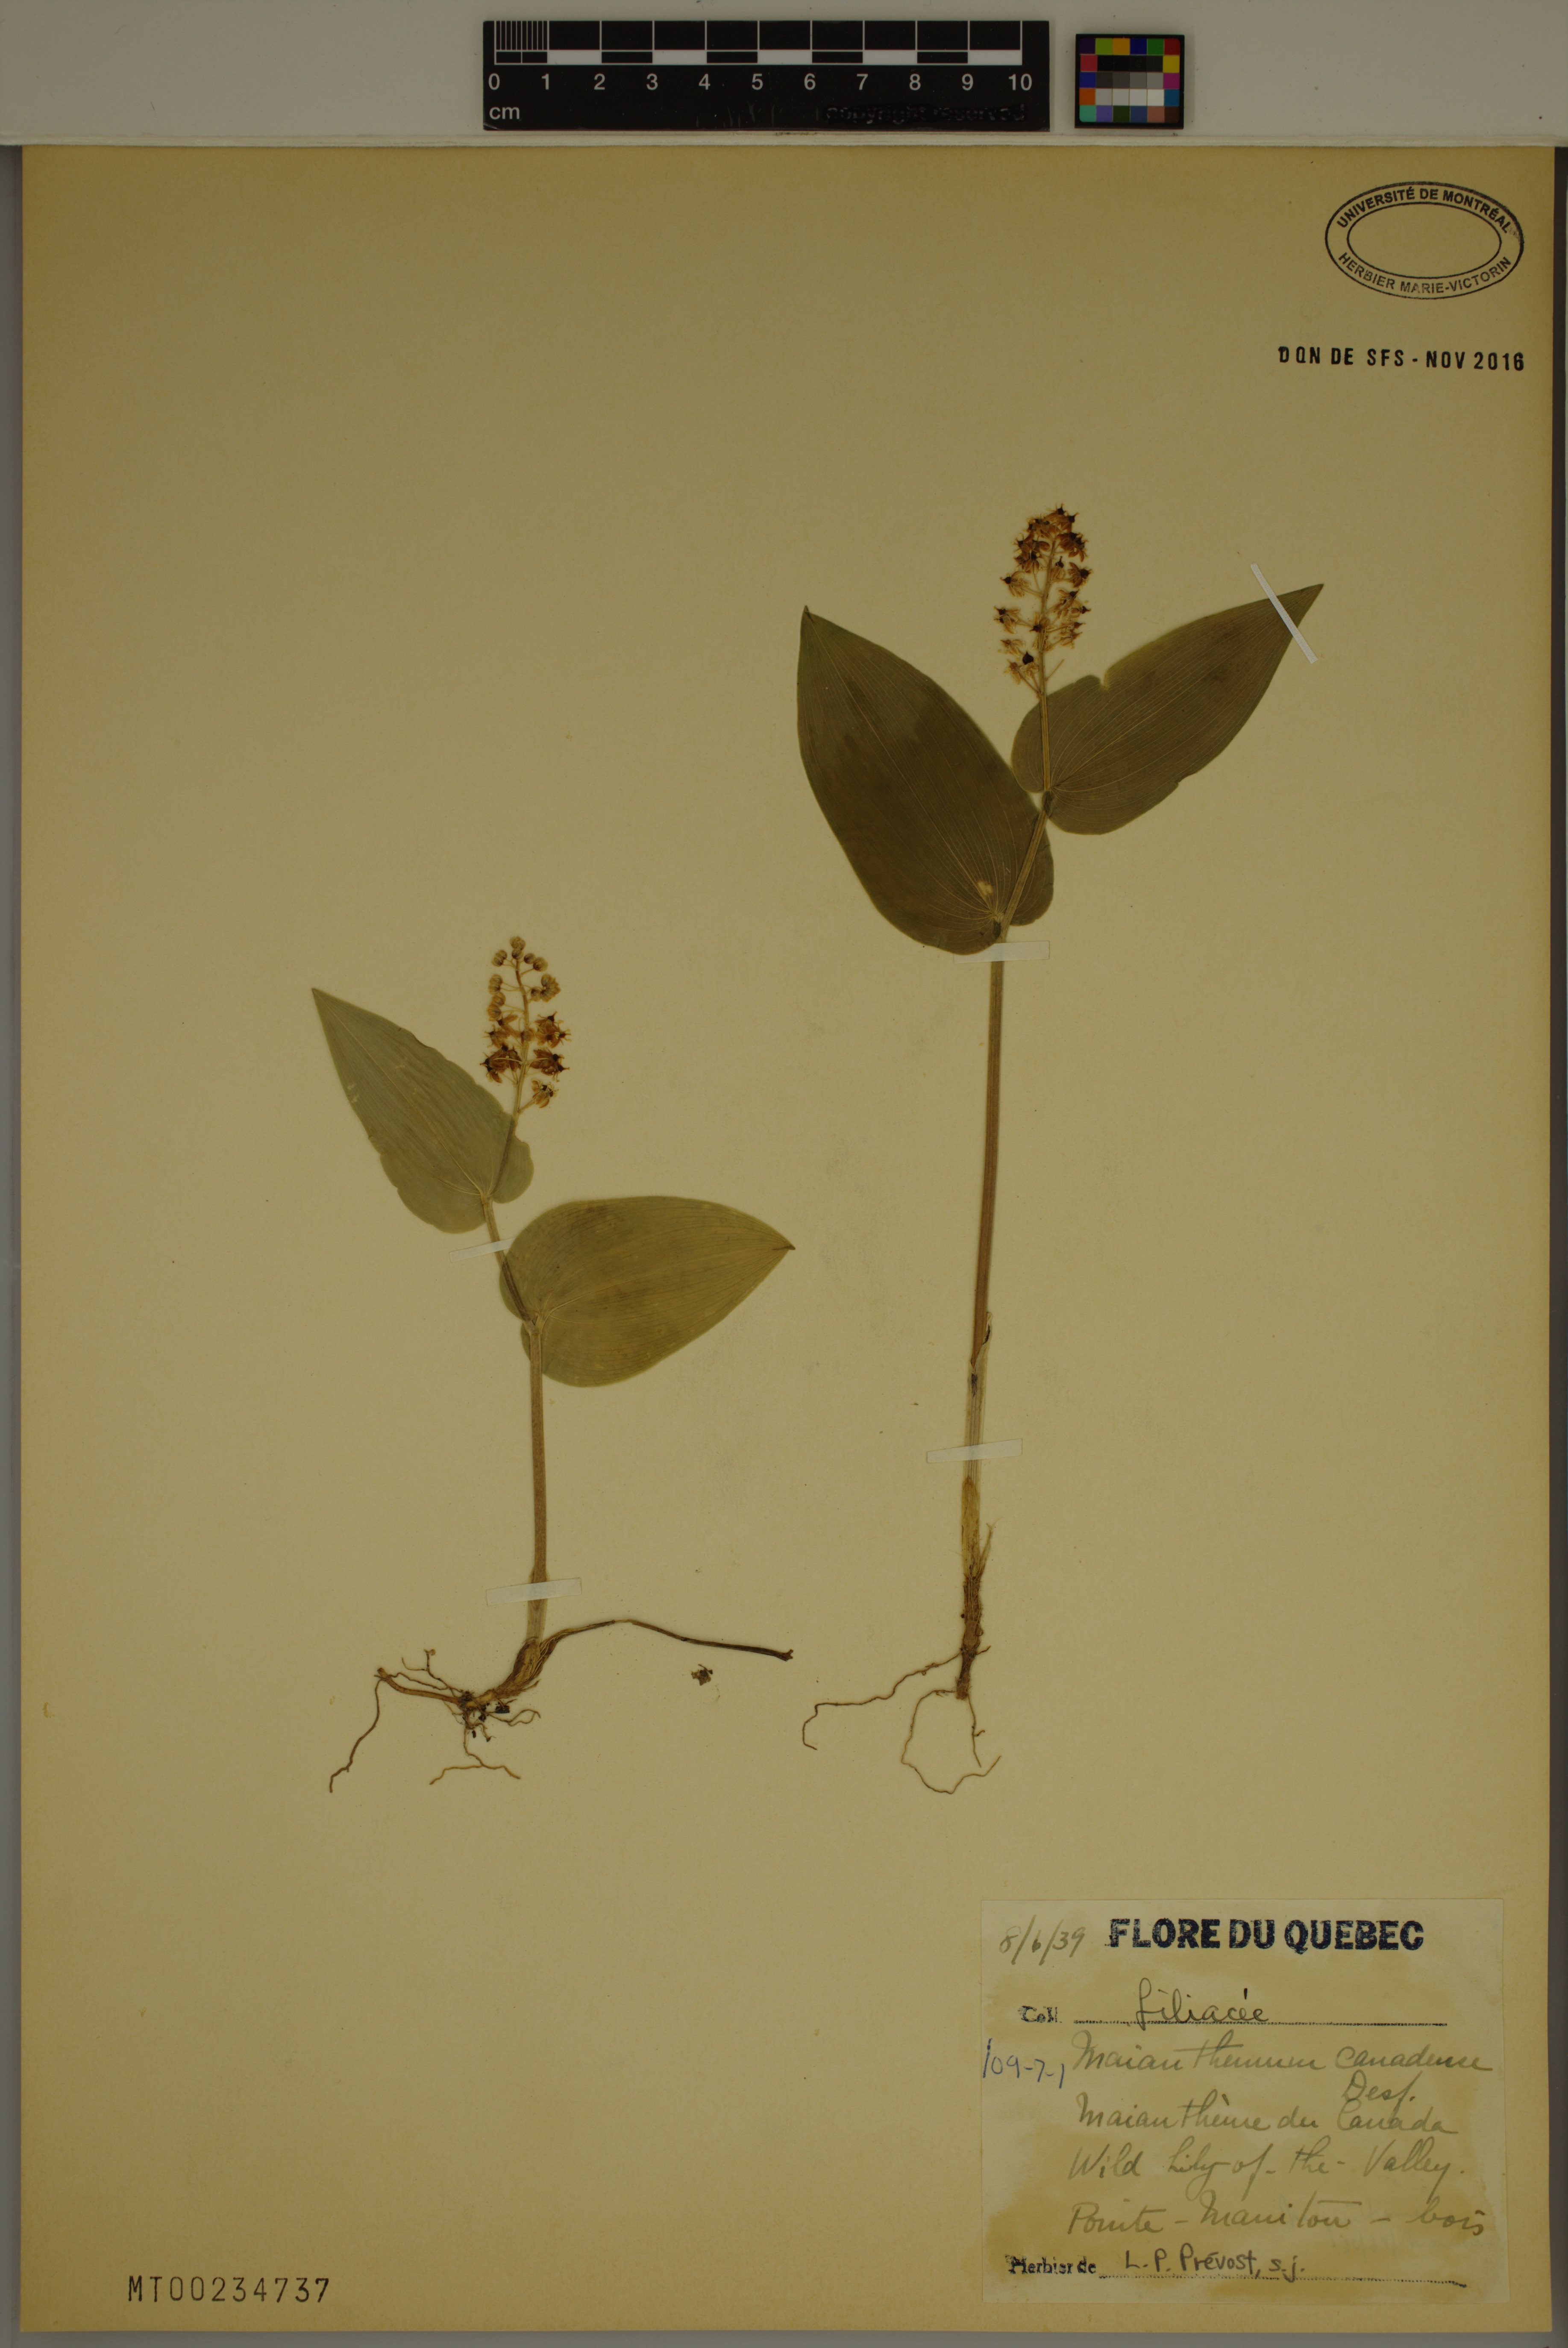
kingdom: Plantae
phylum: Tracheophyta
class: Liliopsida
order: Asparagales
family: Asparagaceae
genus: Maianthemum
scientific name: Maianthemum canadense
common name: False lily-of-the-valley
